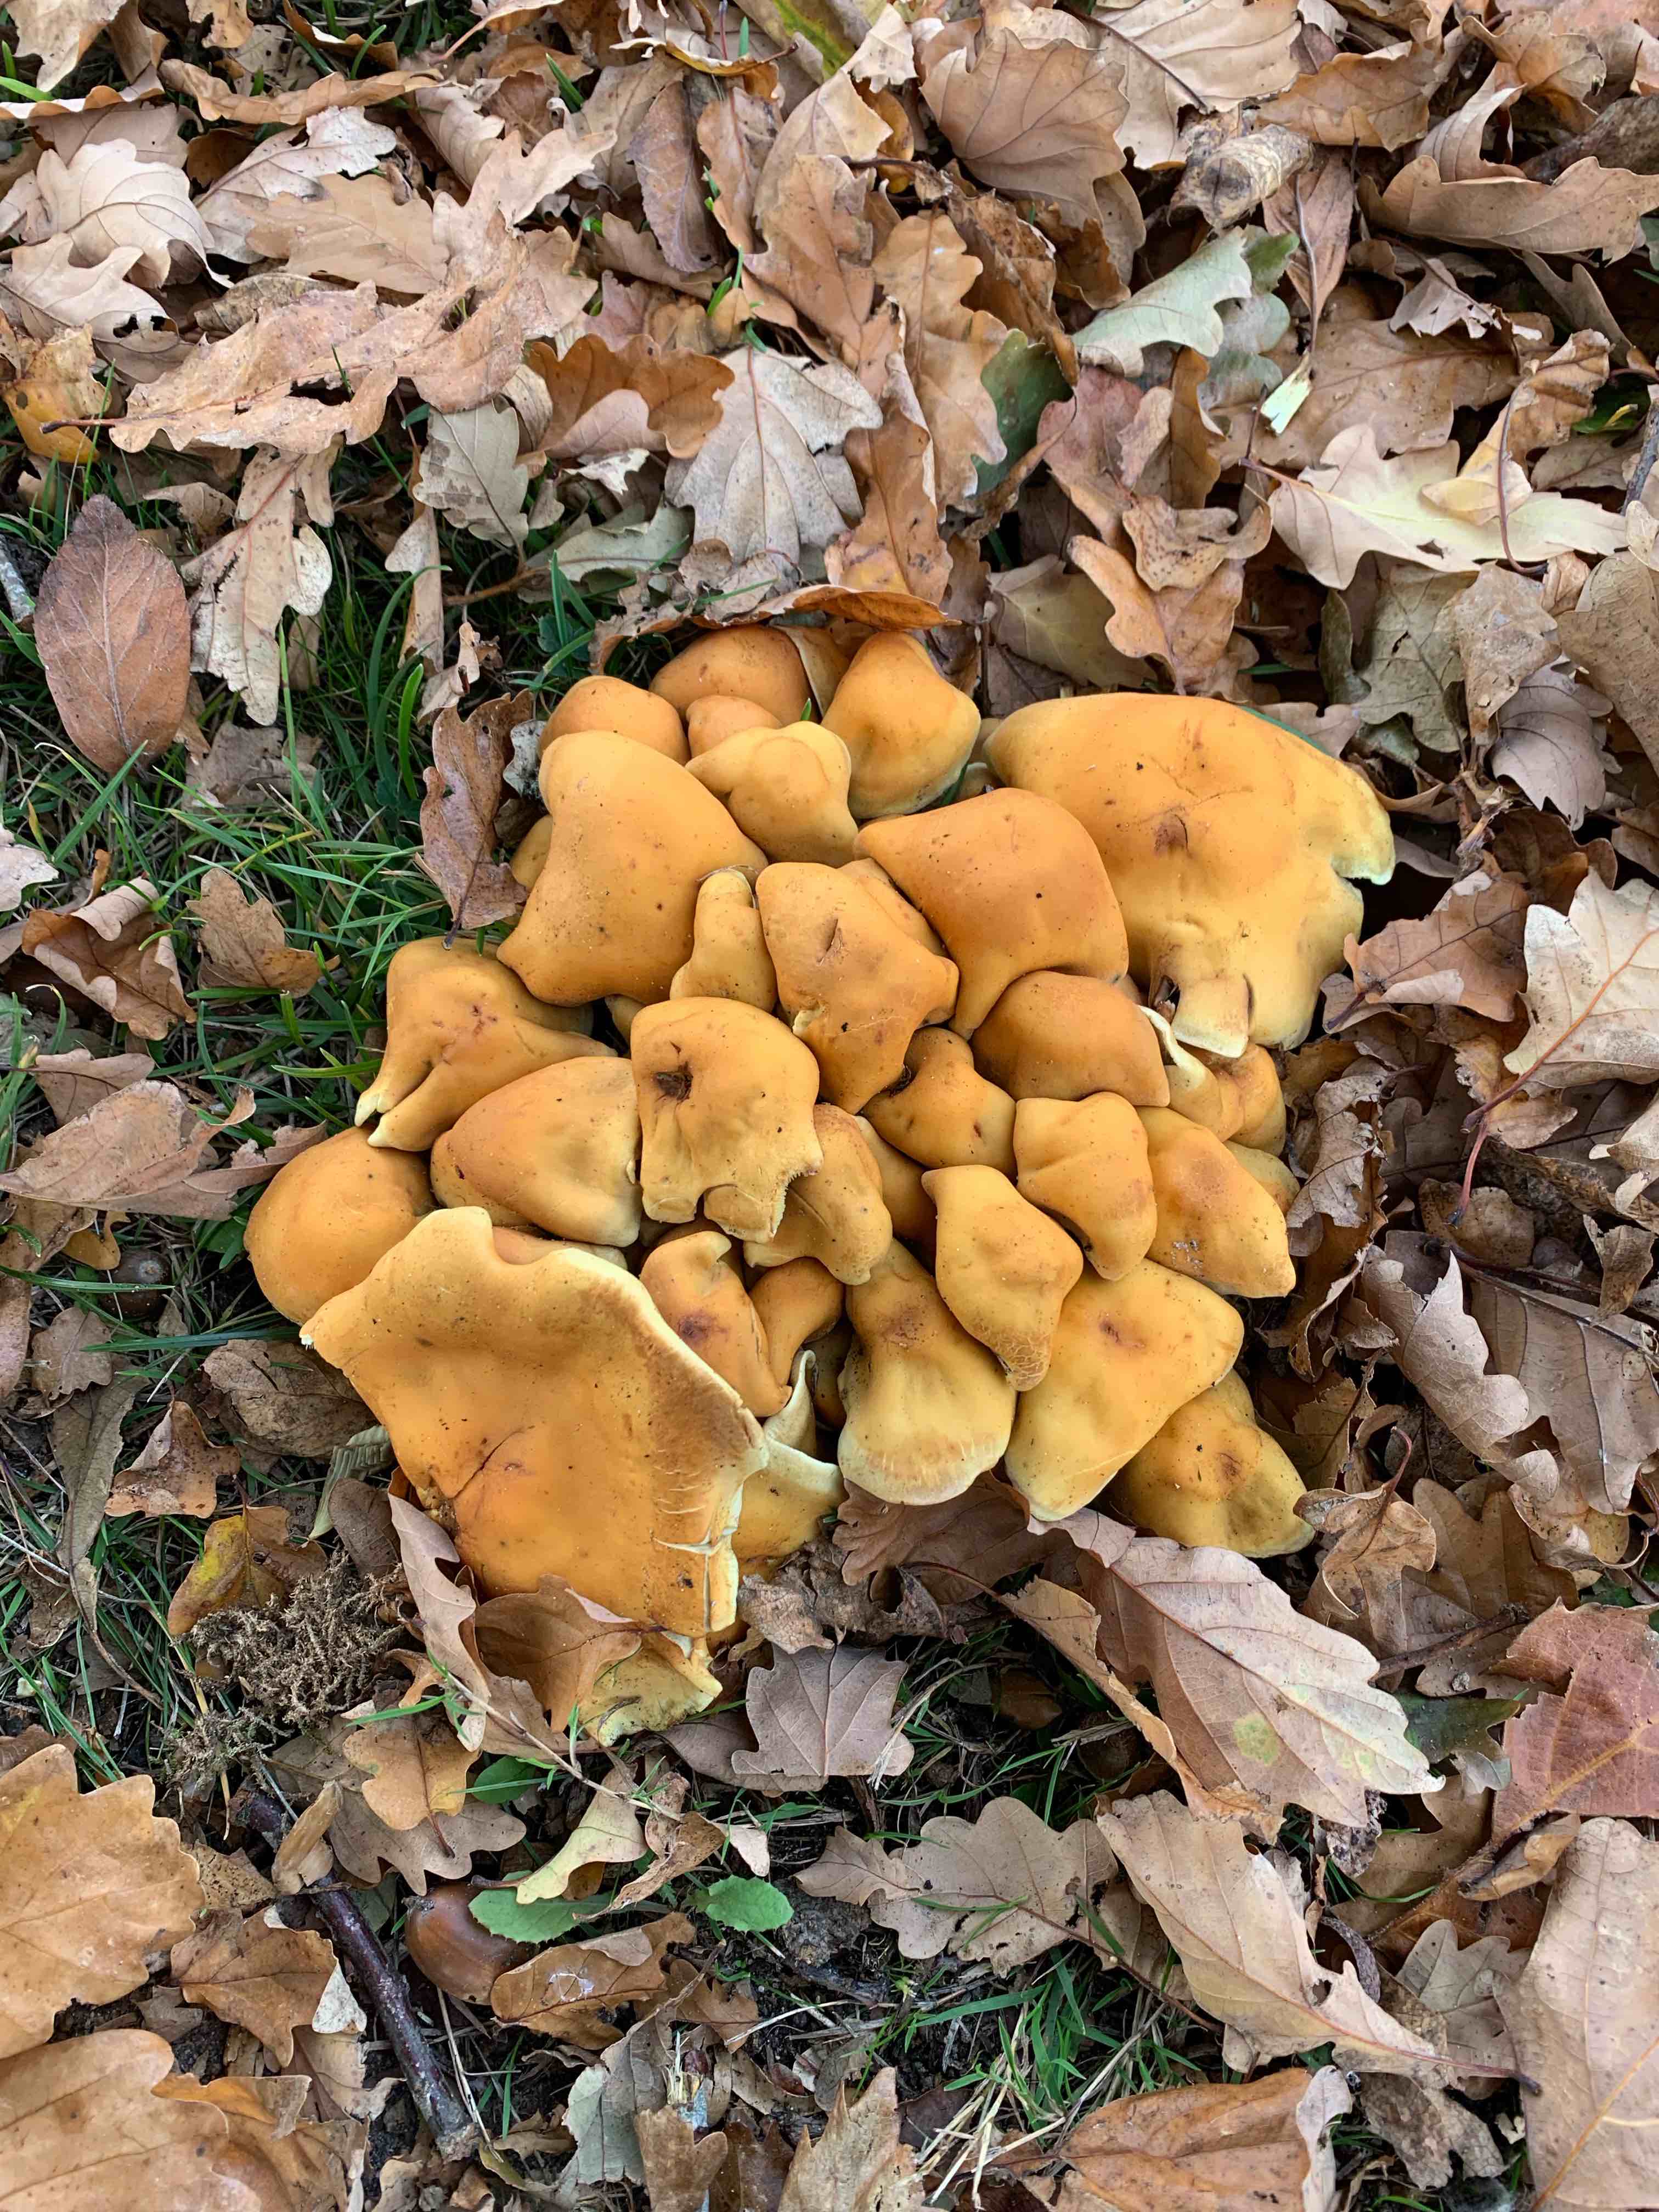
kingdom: Fungi
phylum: Basidiomycota
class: Agaricomycetes
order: Agaricales
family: Strophariaceae
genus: Hypholoma
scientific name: Hypholoma fasciculare
